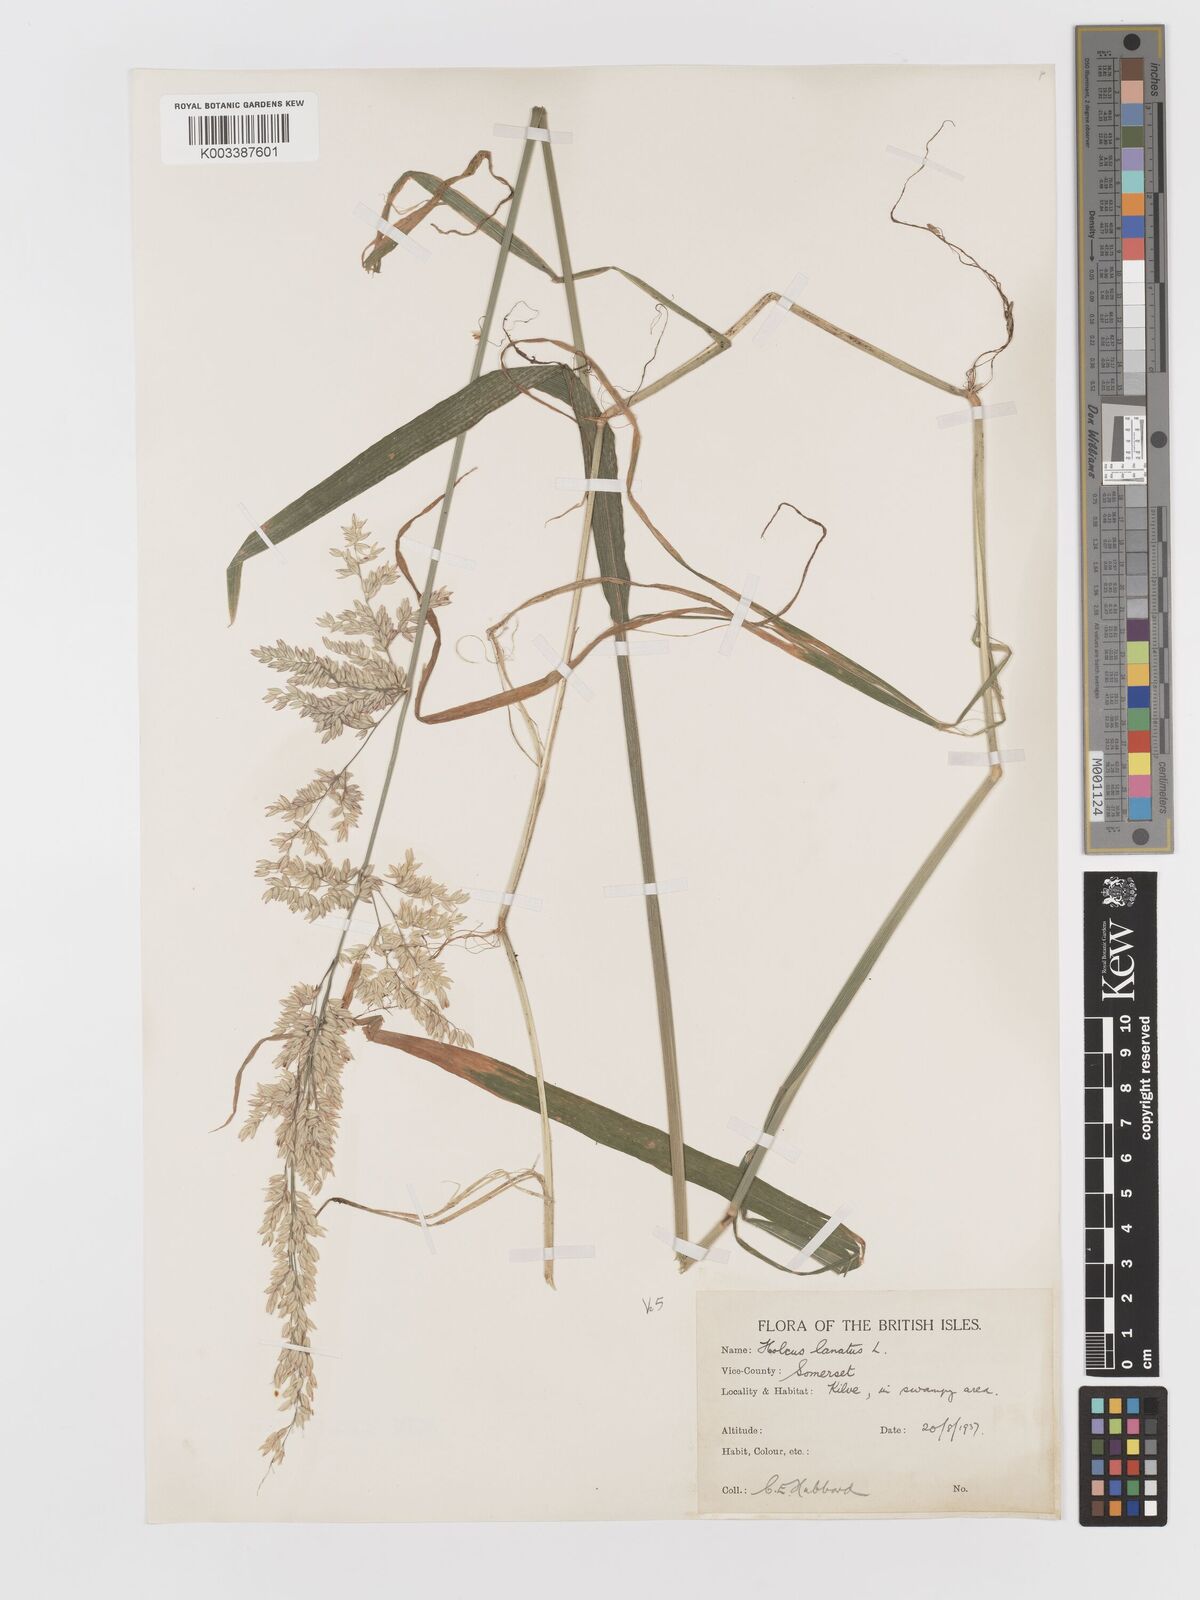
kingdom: Plantae
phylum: Tracheophyta
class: Liliopsida
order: Poales
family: Poaceae
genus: Holcus
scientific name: Holcus lanatus
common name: Yorkshire-fog
